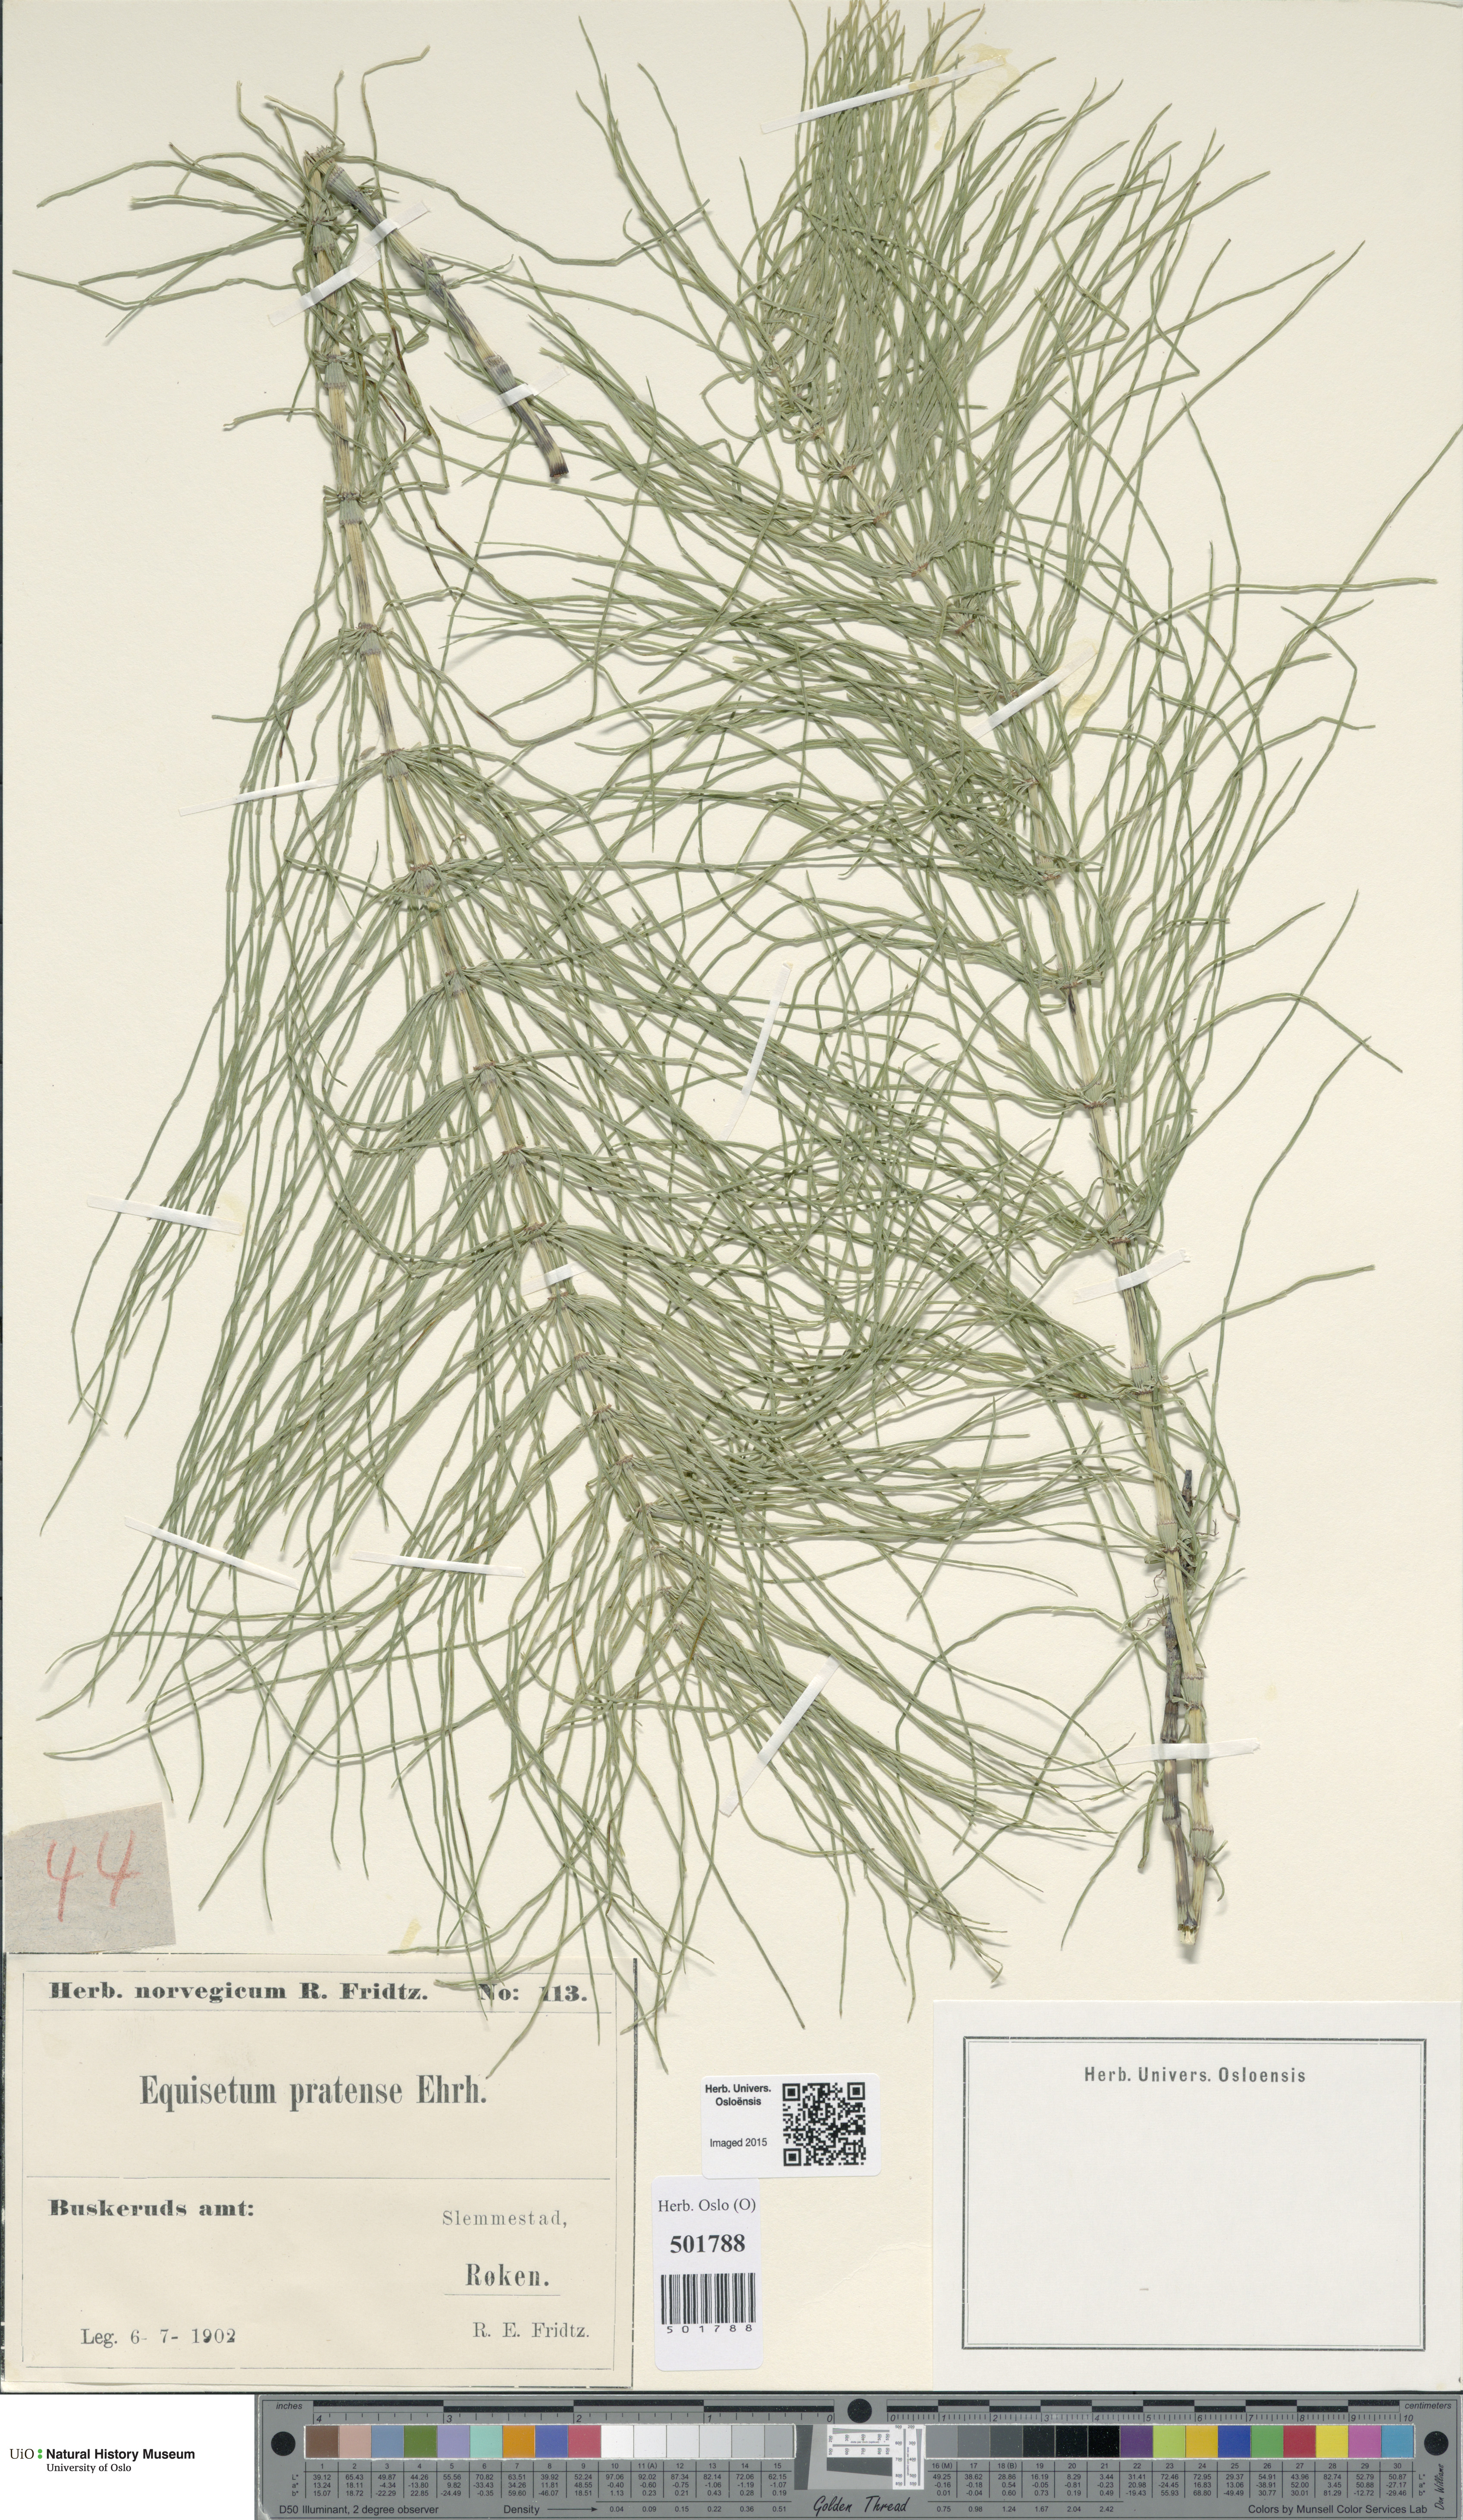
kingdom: Plantae
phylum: Tracheophyta
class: Polypodiopsida
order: Equisetales
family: Equisetaceae
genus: Equisetum
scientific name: Equisetum pratense
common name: Meadow horsetail
